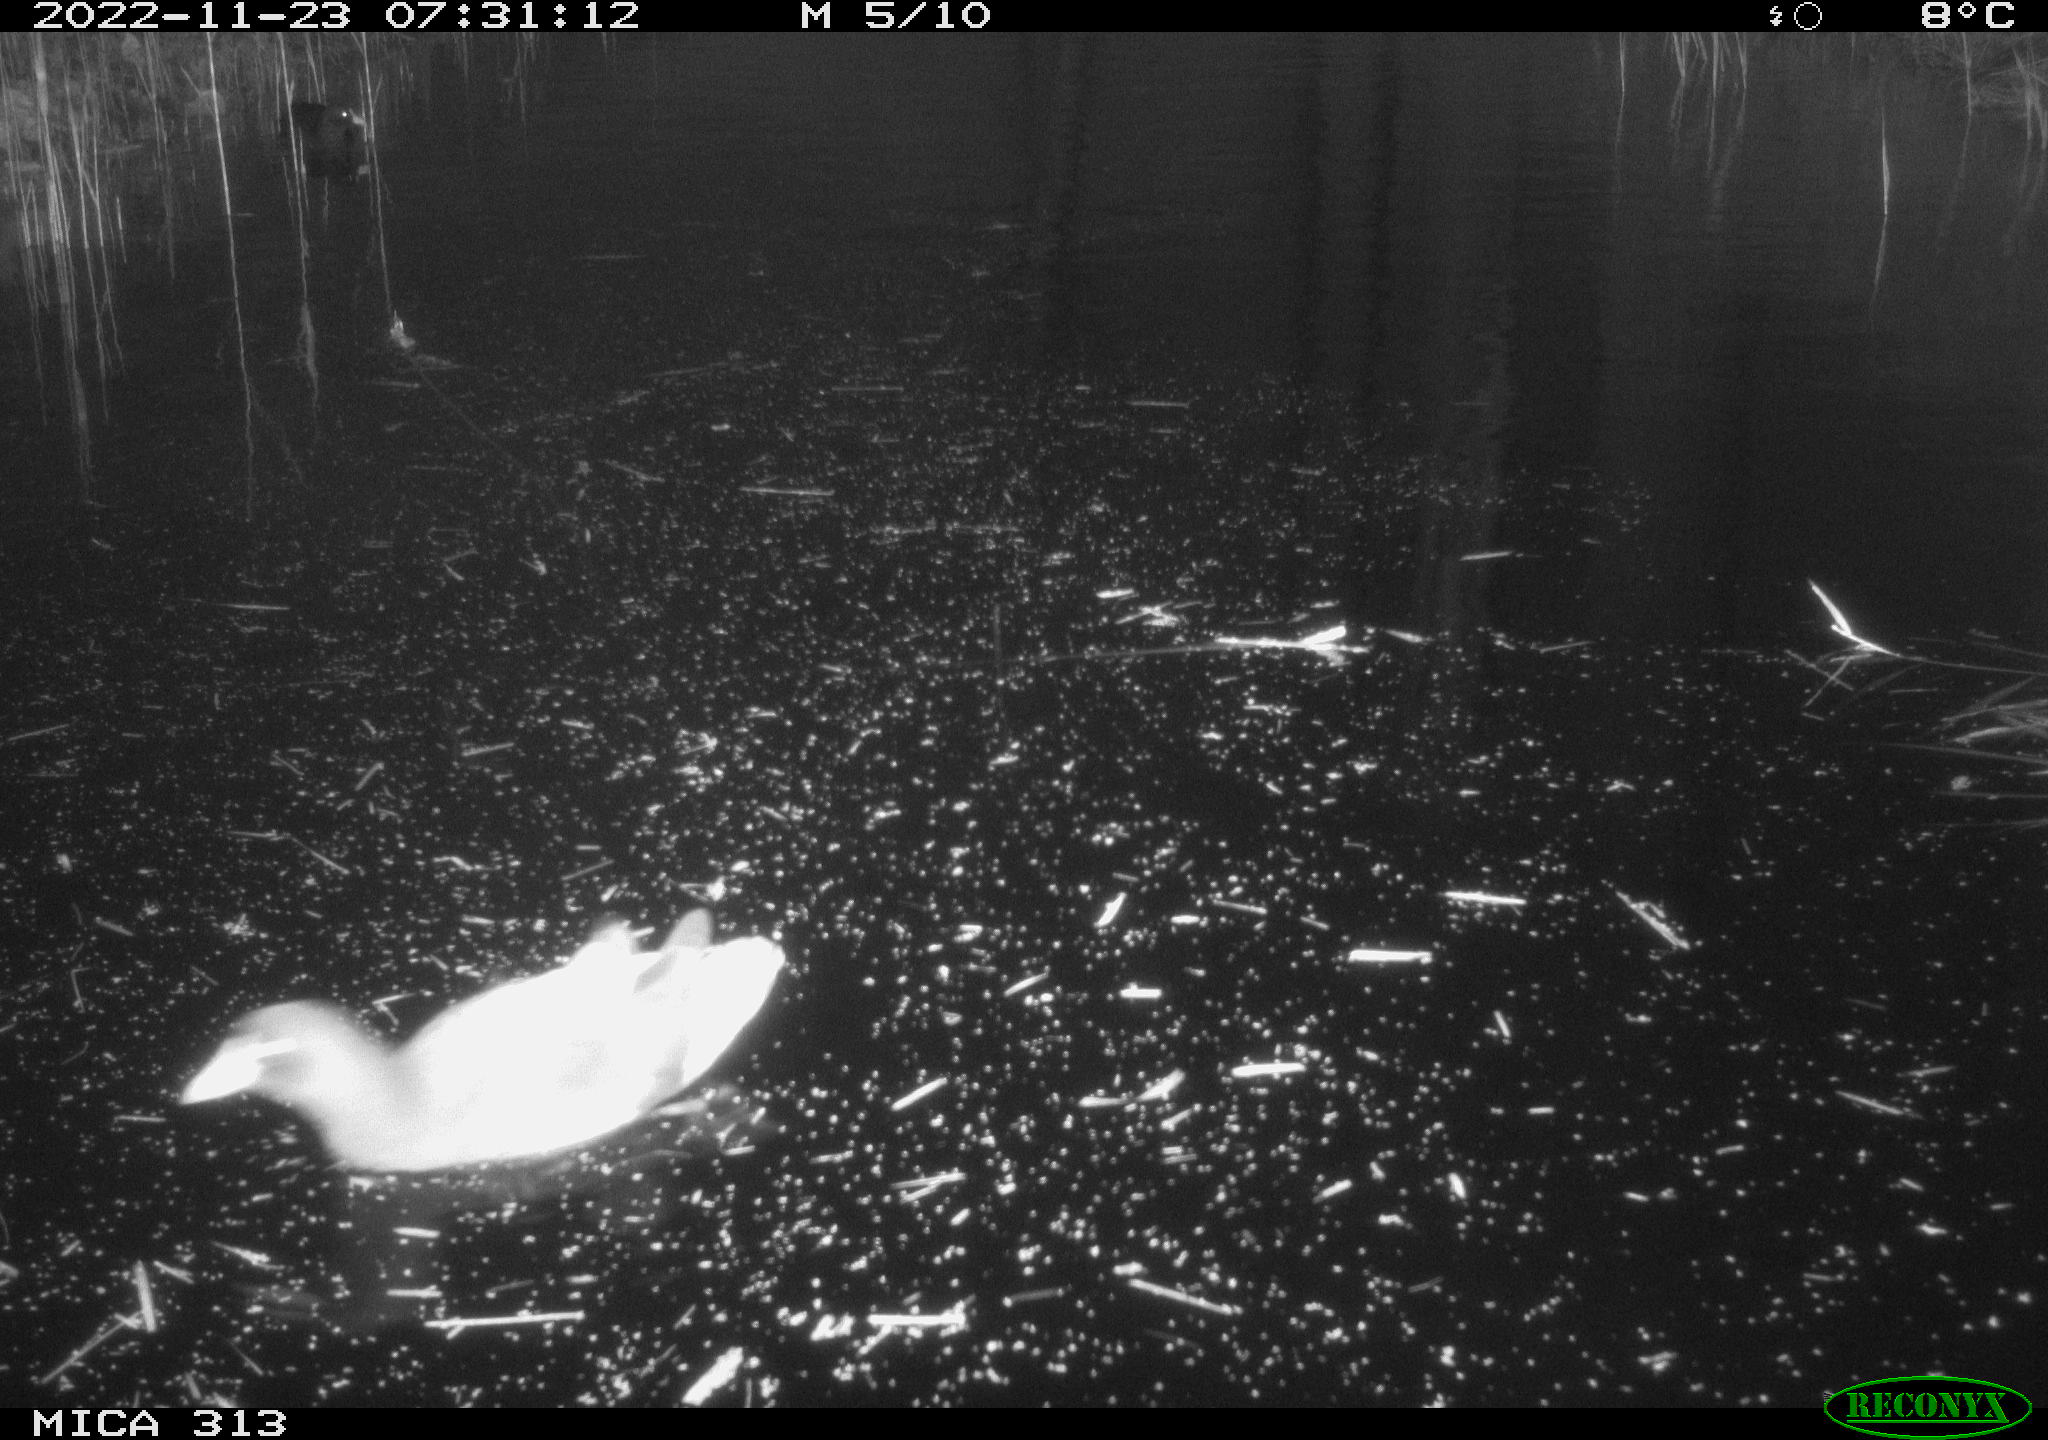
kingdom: Animalia
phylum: Chordata
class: Aves
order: Gruiformes
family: Rallidae
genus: Fulica
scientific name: Fulica atra
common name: Eurasian coot
